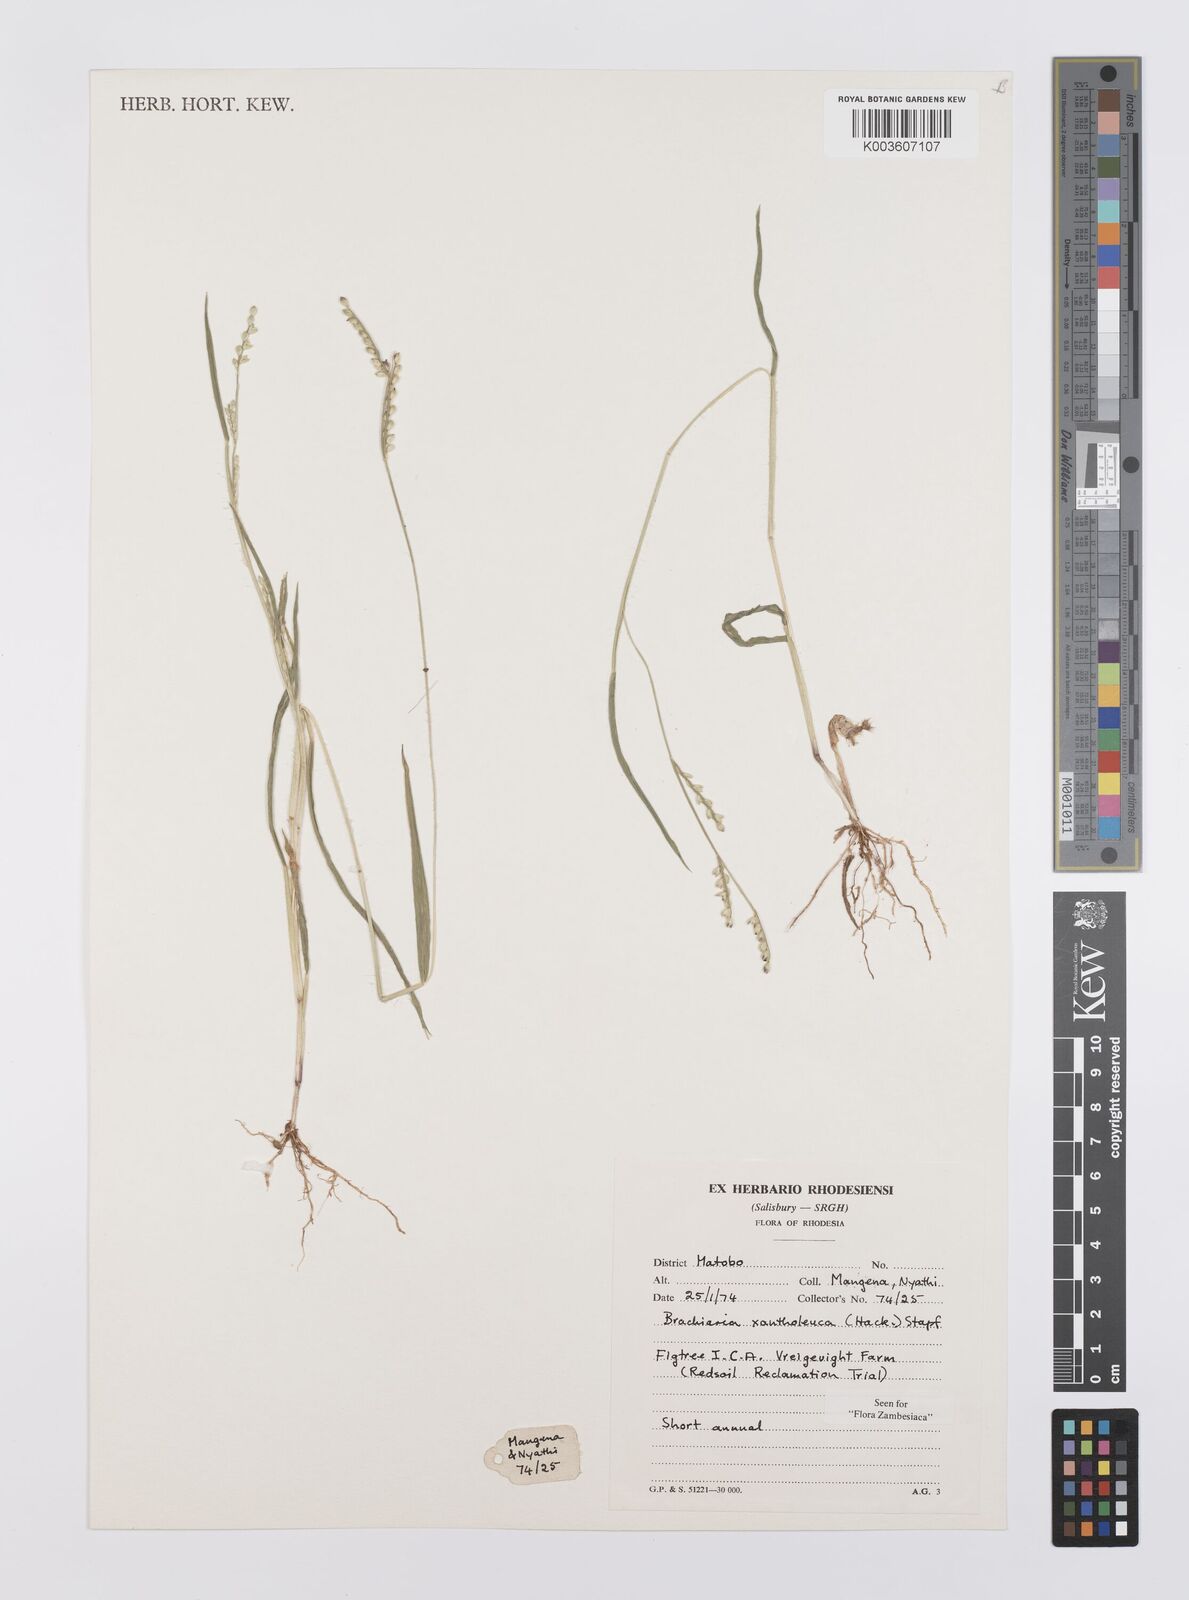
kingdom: Plantae
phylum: Tracheophyta
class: Liliopsida
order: Poales
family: Poaceae
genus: Urochloa
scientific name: Urochloa xantholeuca
